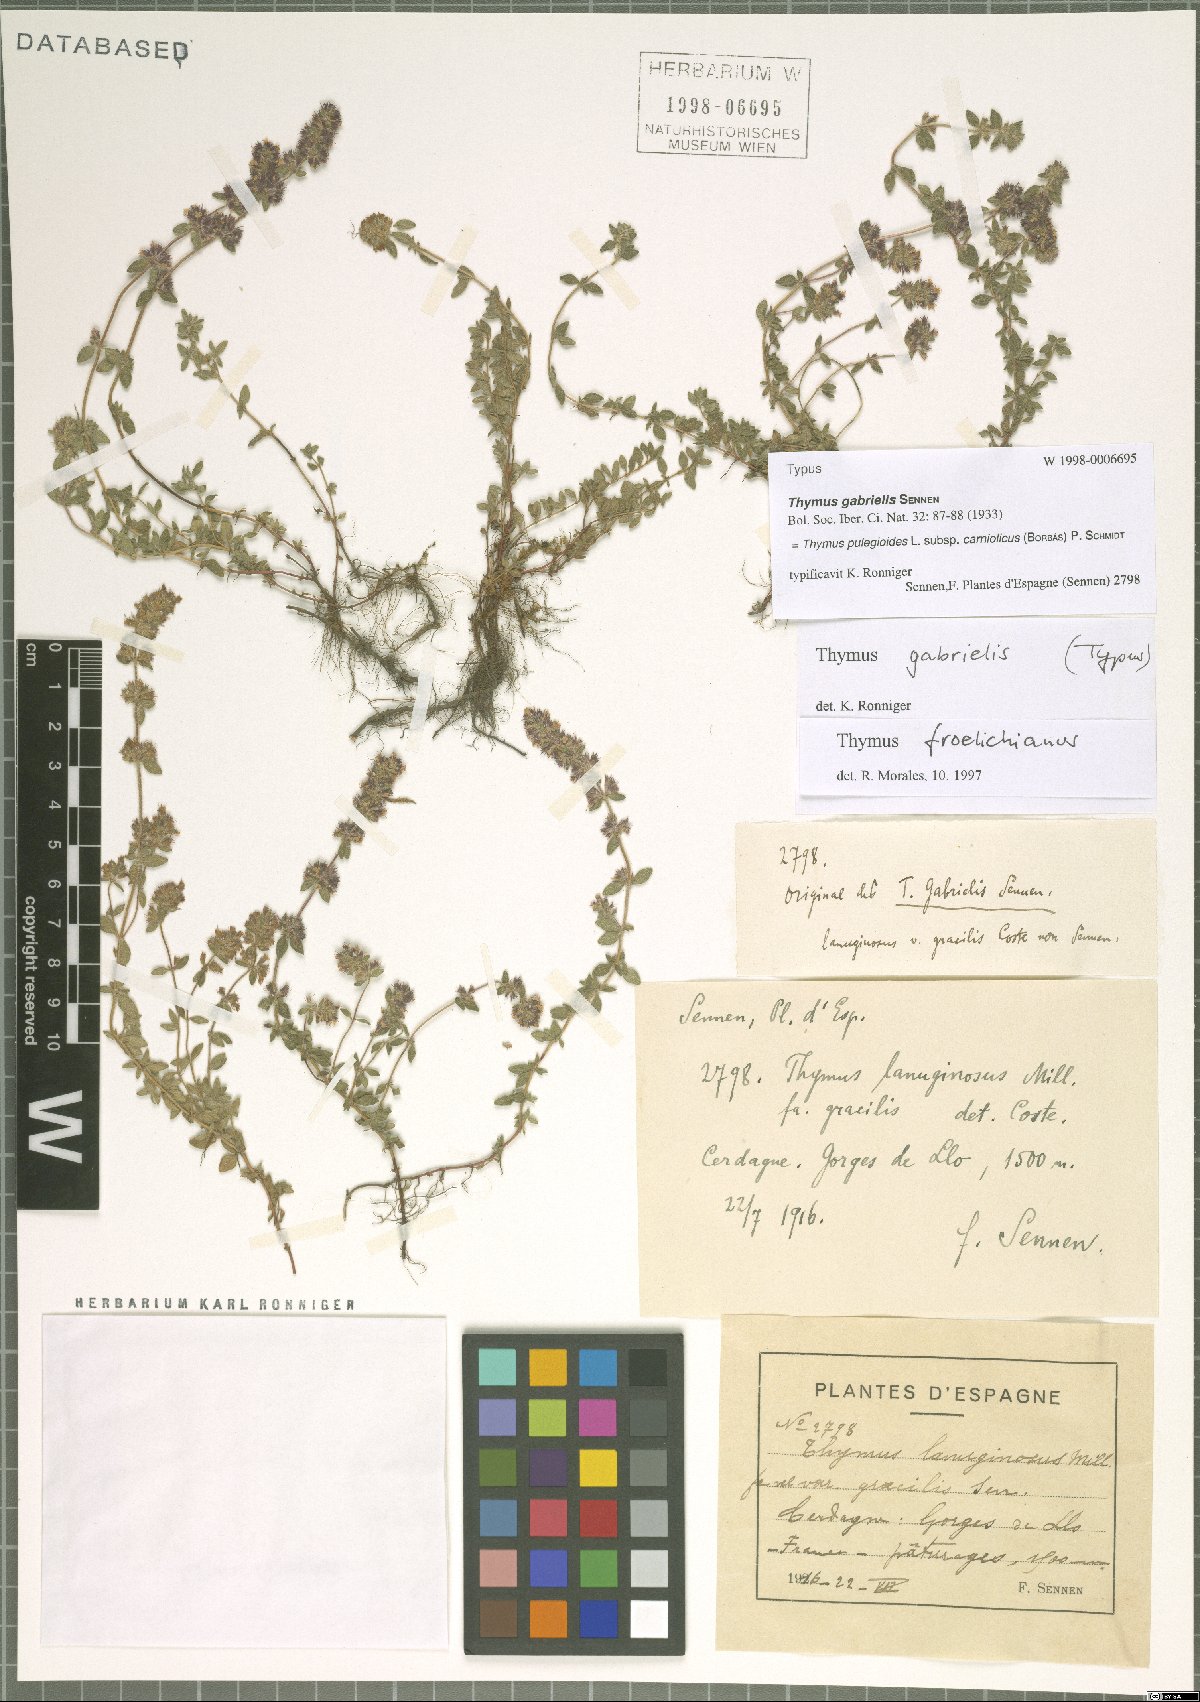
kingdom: Plantae
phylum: Tracheophyta
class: Magnoliopsida
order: Lamiales
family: Lamiaceae
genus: Thymus
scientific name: Thymus pannonicus
